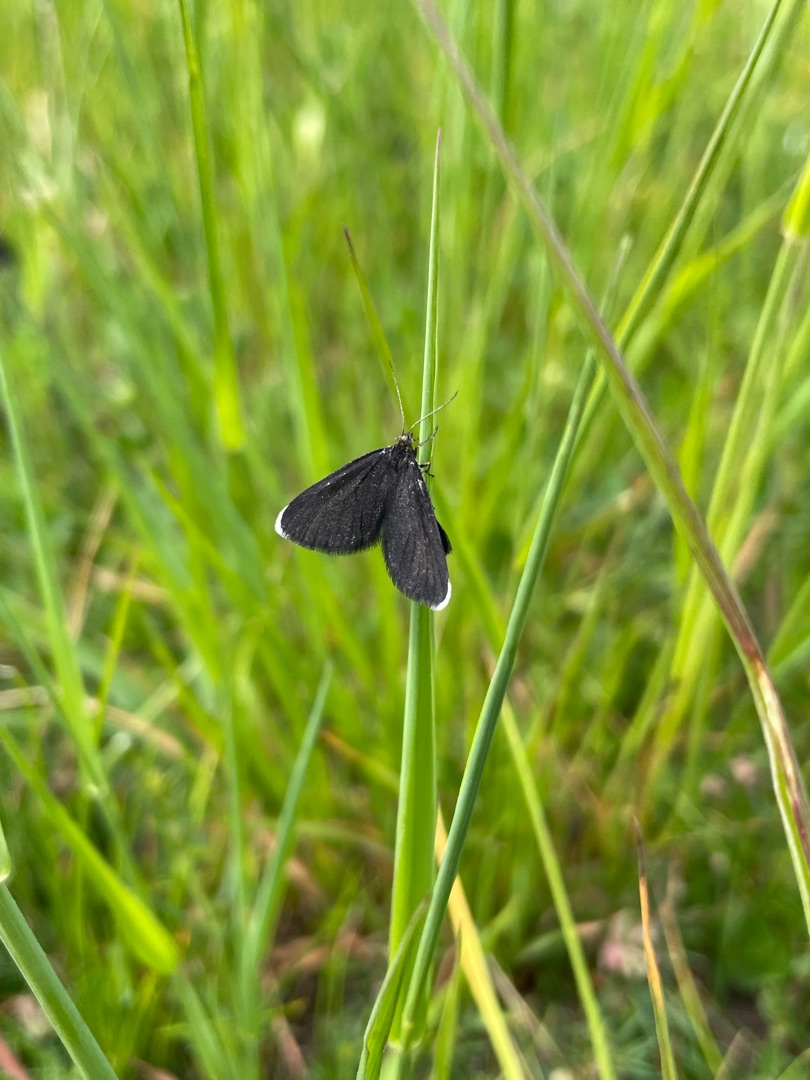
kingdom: Animalia
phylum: Arthropoda
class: Insecta
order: Lepidoptera
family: Geometridae
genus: Odezia
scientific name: Odezia atrata
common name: Sort måler
